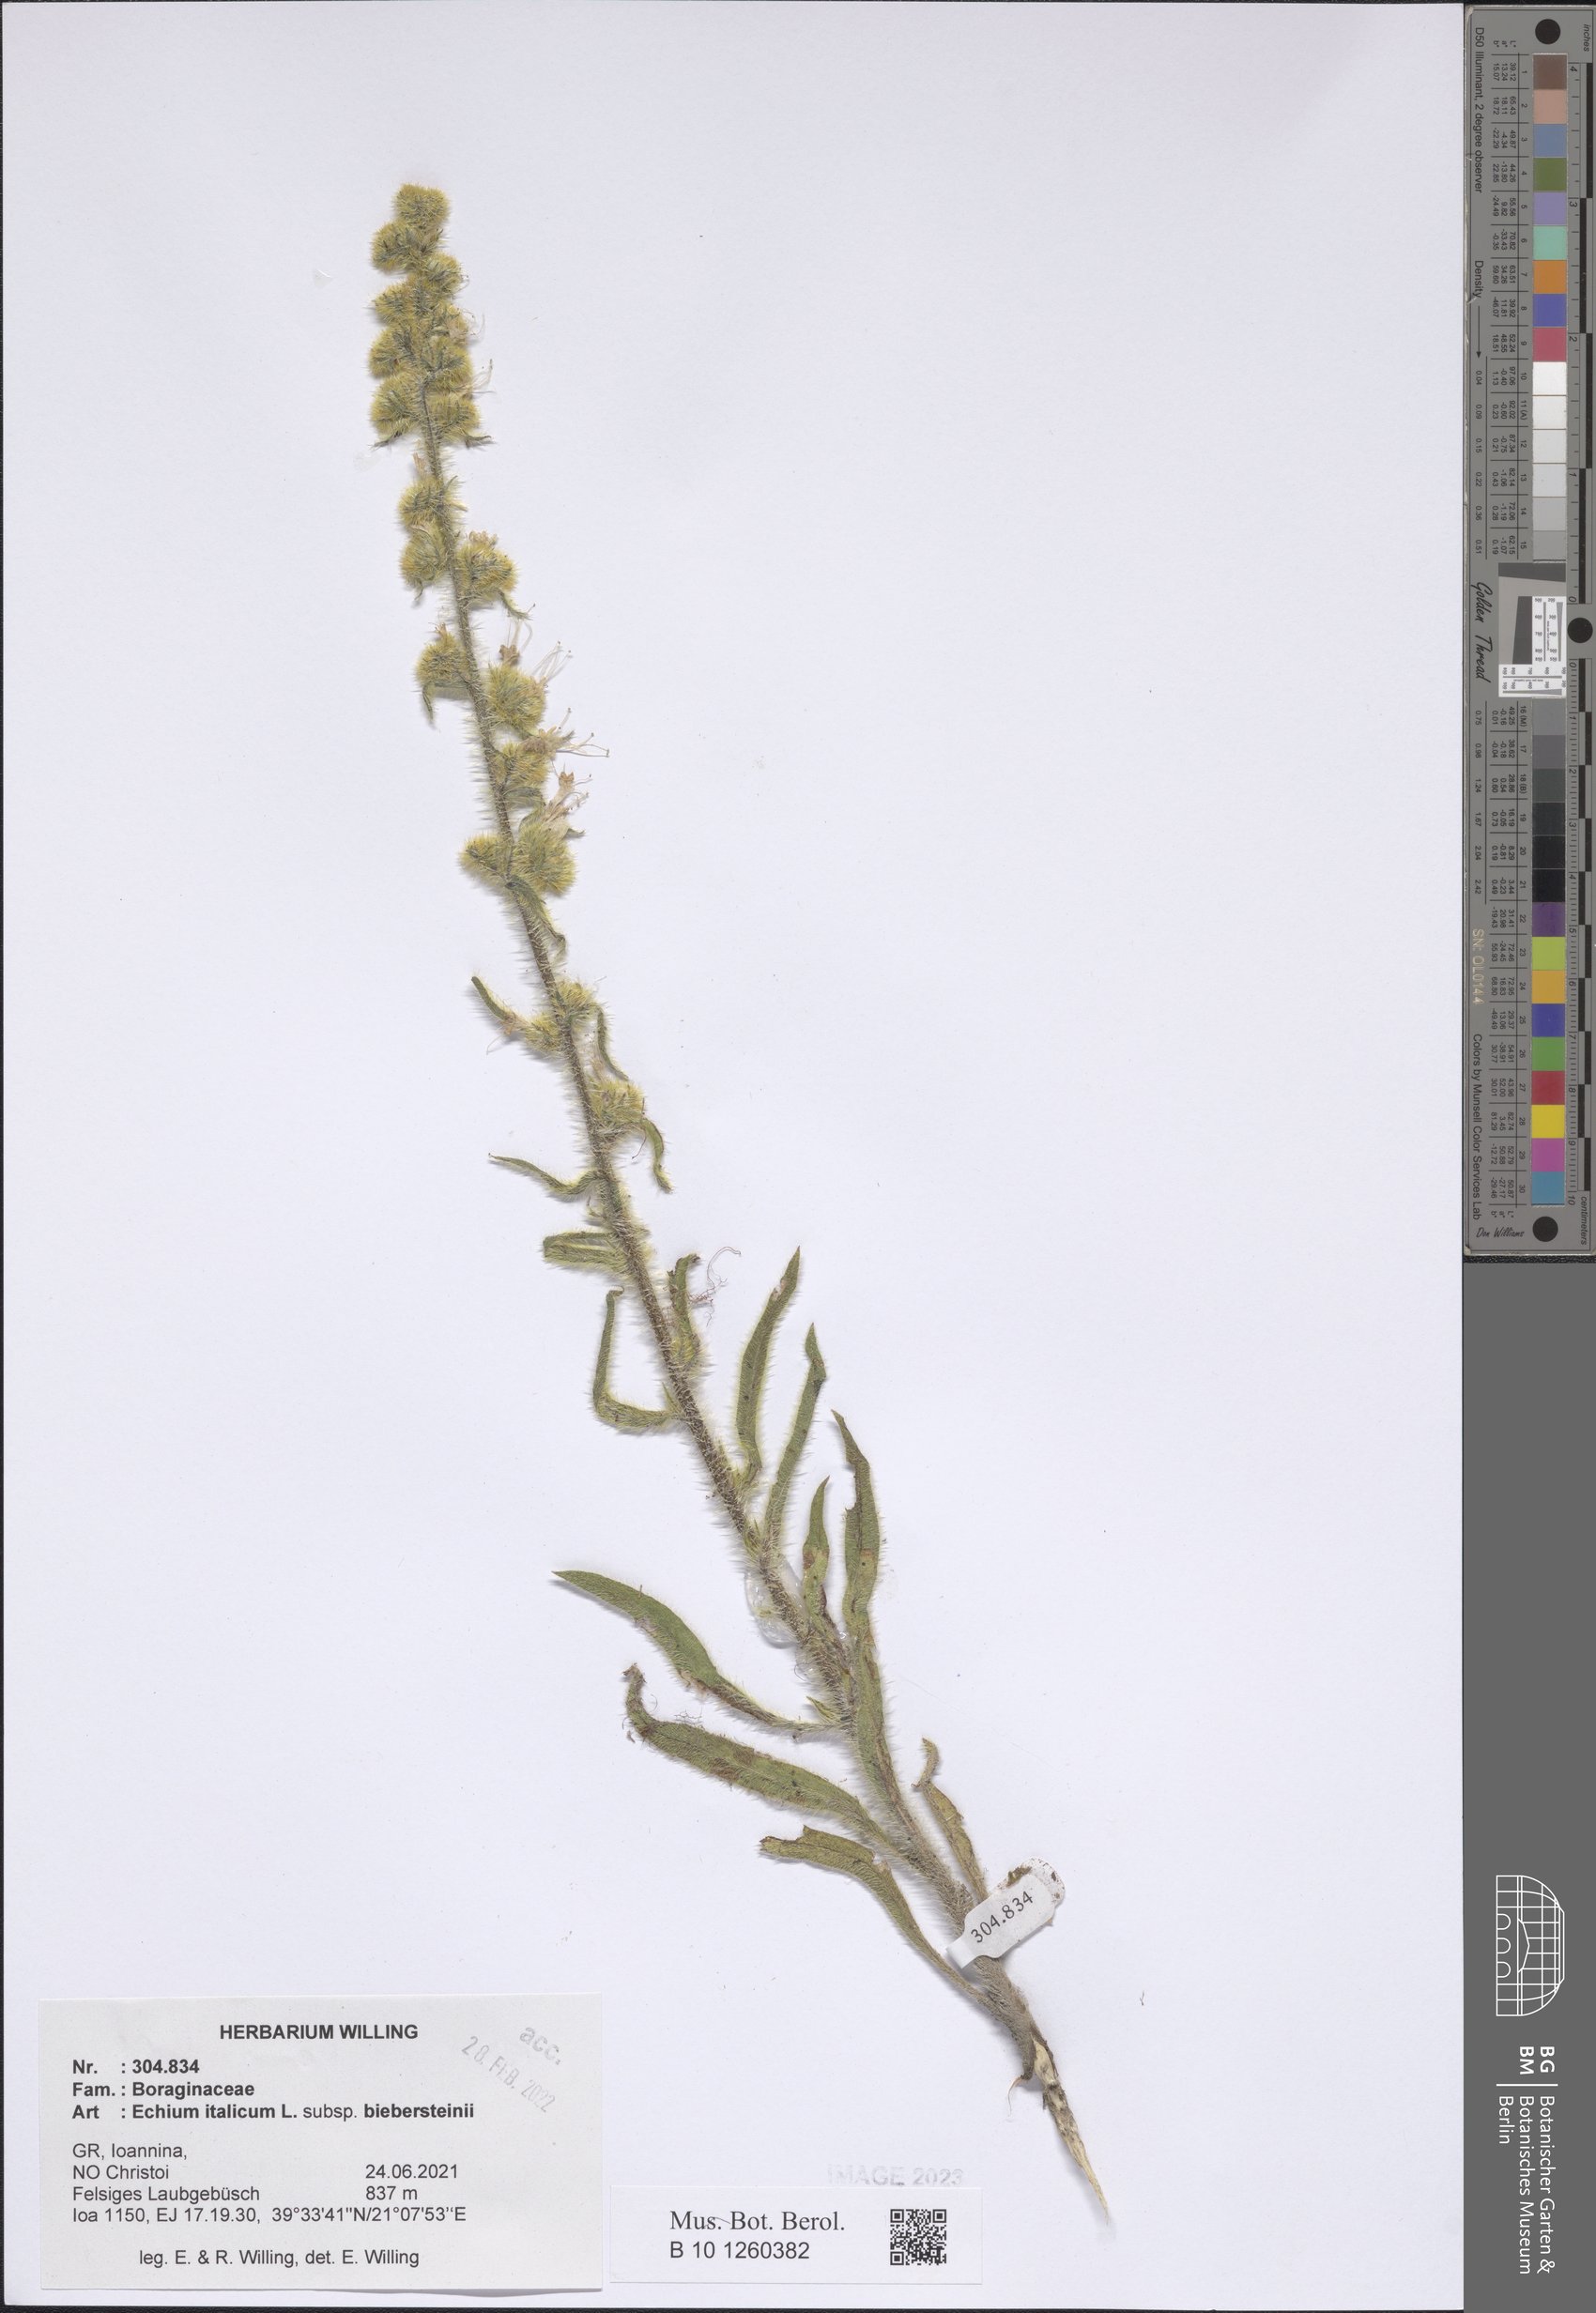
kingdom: Plantae
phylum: Tracheophyta
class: Magnoliopsida
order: Boraginales
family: Boraginaceae
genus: Echium
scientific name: Echium italicum
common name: Italian viper's bugloss
